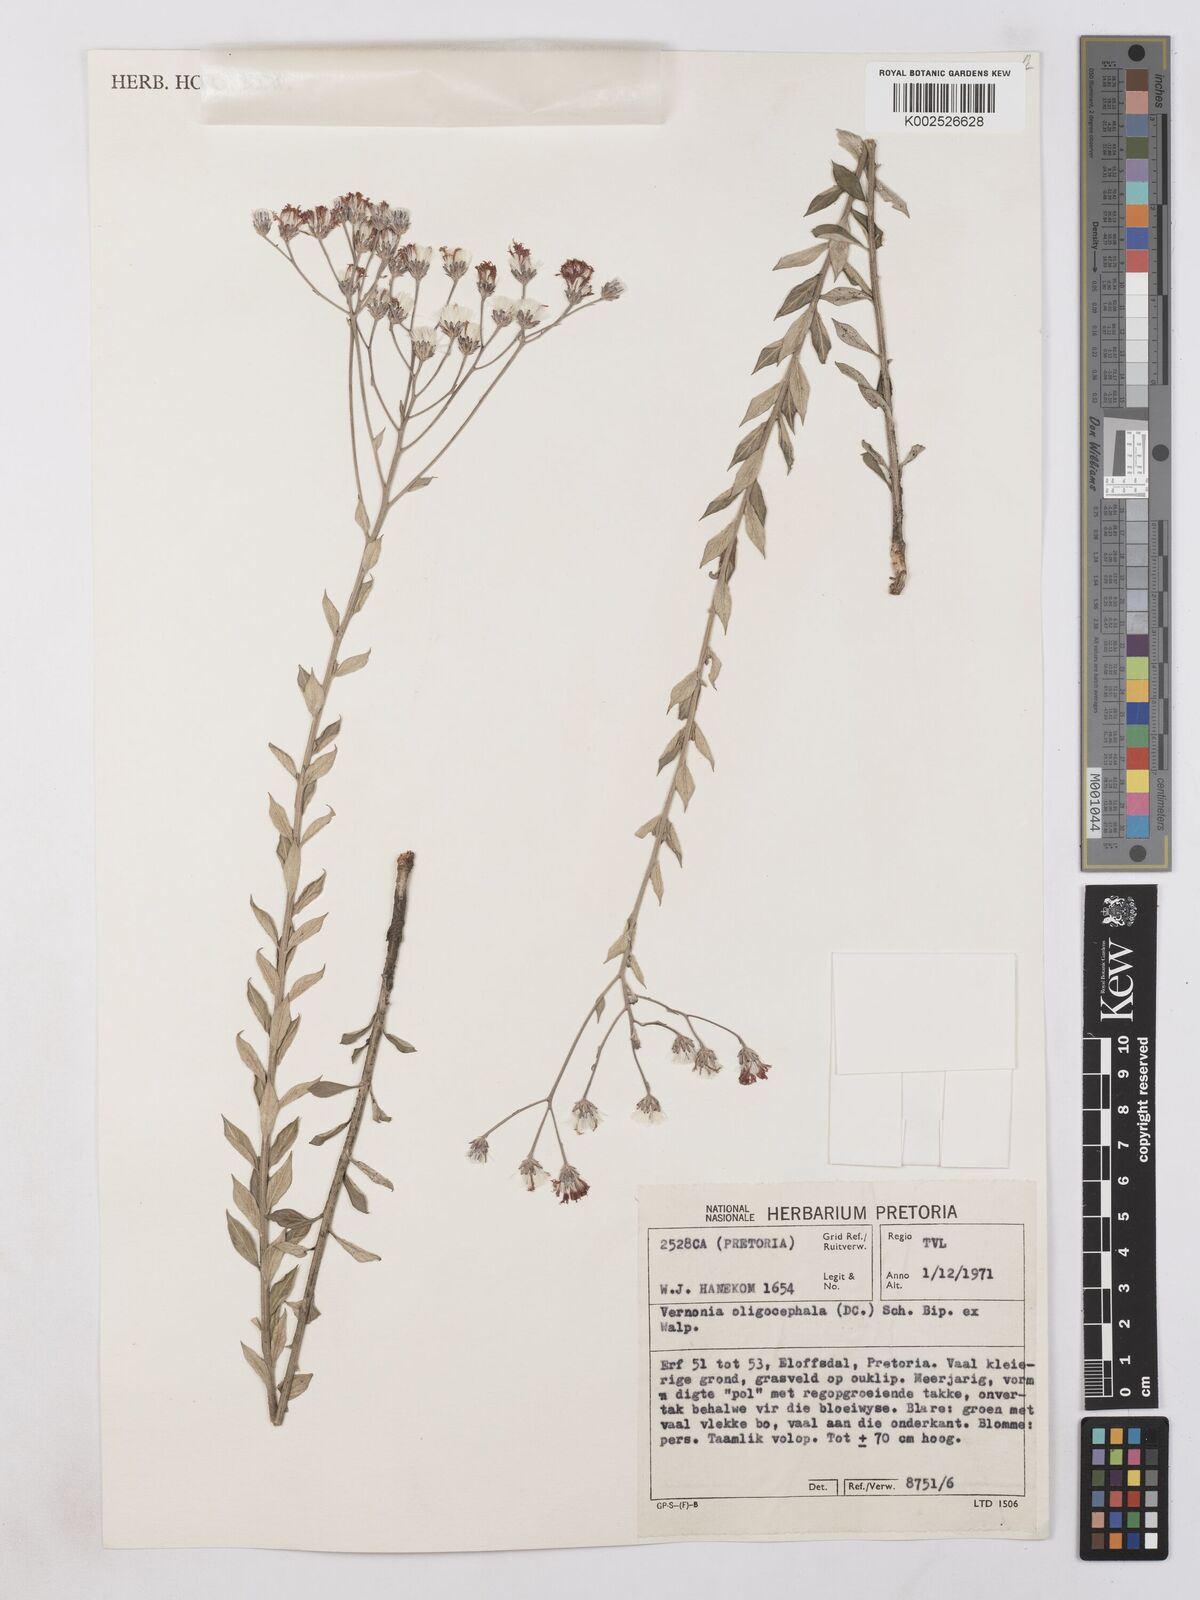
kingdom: Plantae
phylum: Tracheophyta
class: Magnoliopsida
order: Asterales
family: Asteraceae
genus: Hilliardiella
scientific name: Hilliardiella oligocephala
